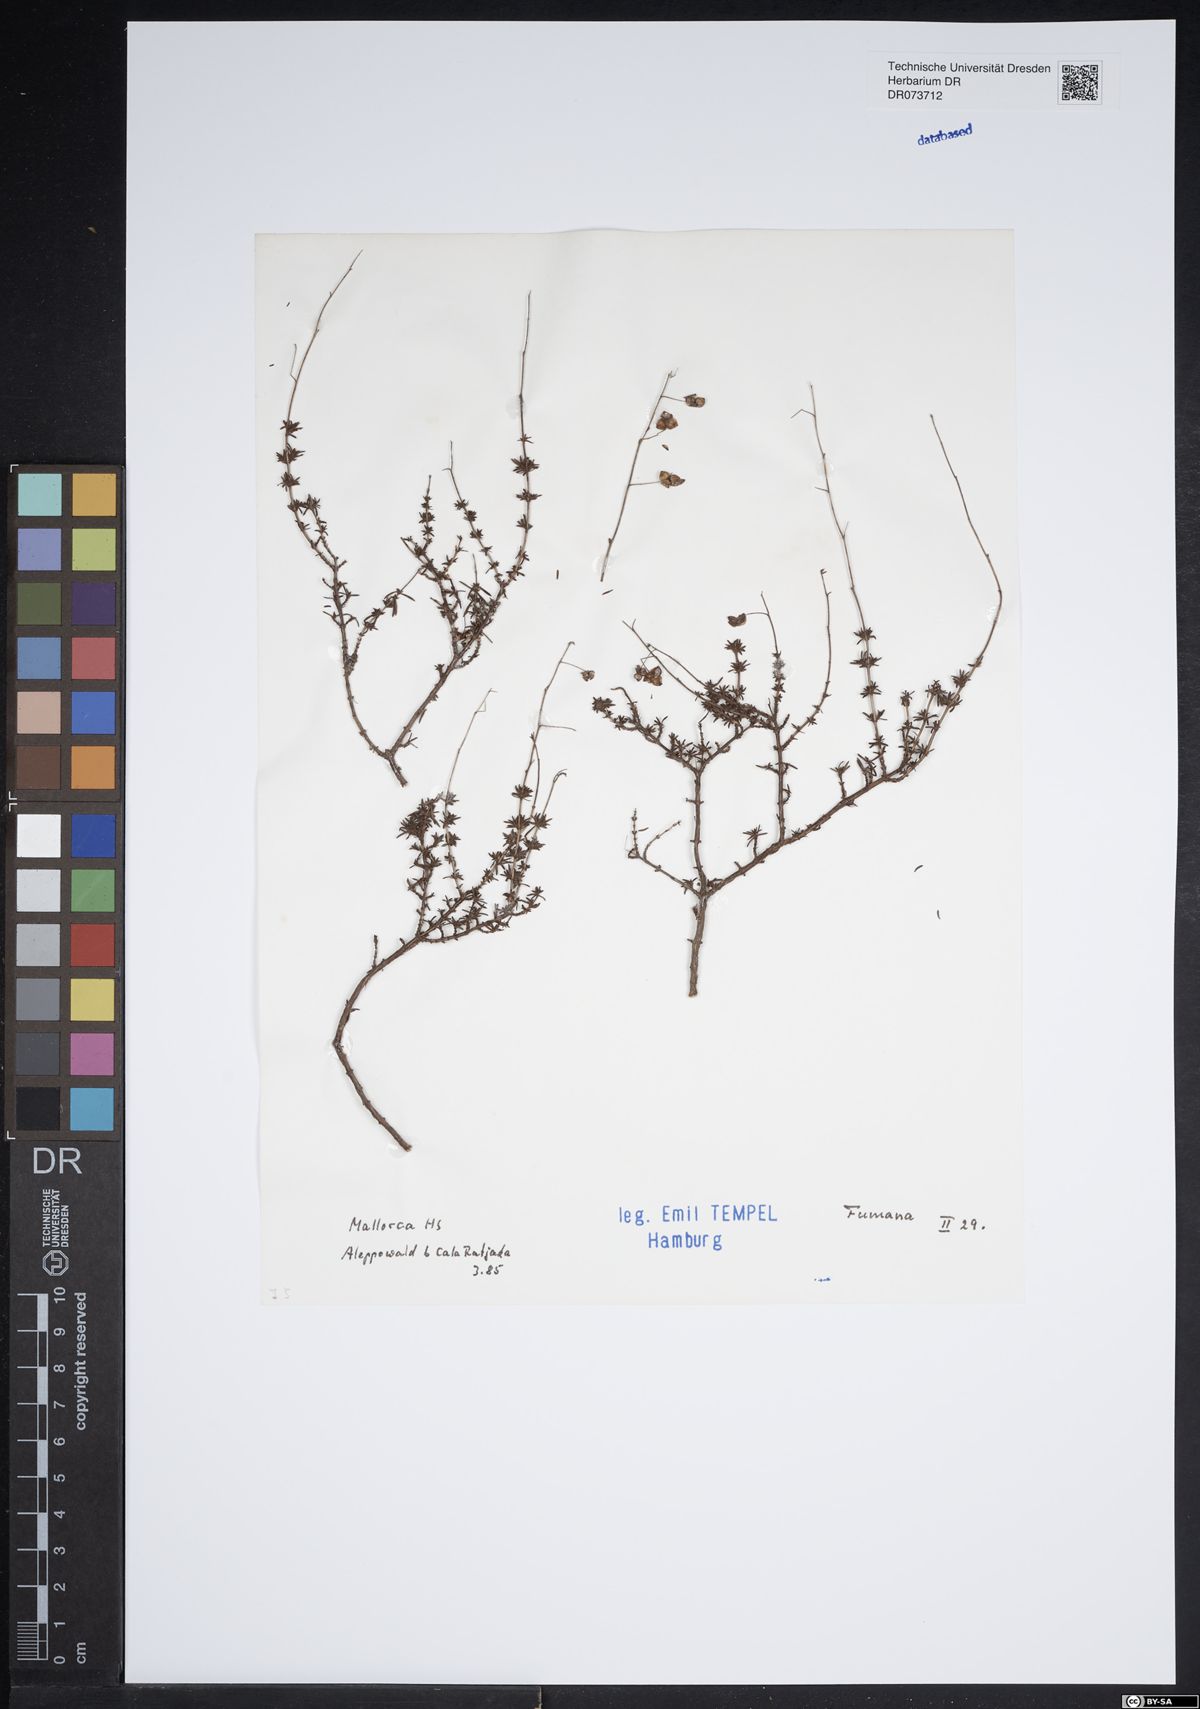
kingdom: Plantae
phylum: Tracheophyta
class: Magnoliopsida
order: Malvales
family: Cistaceae
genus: Fumana
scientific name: Fumana
